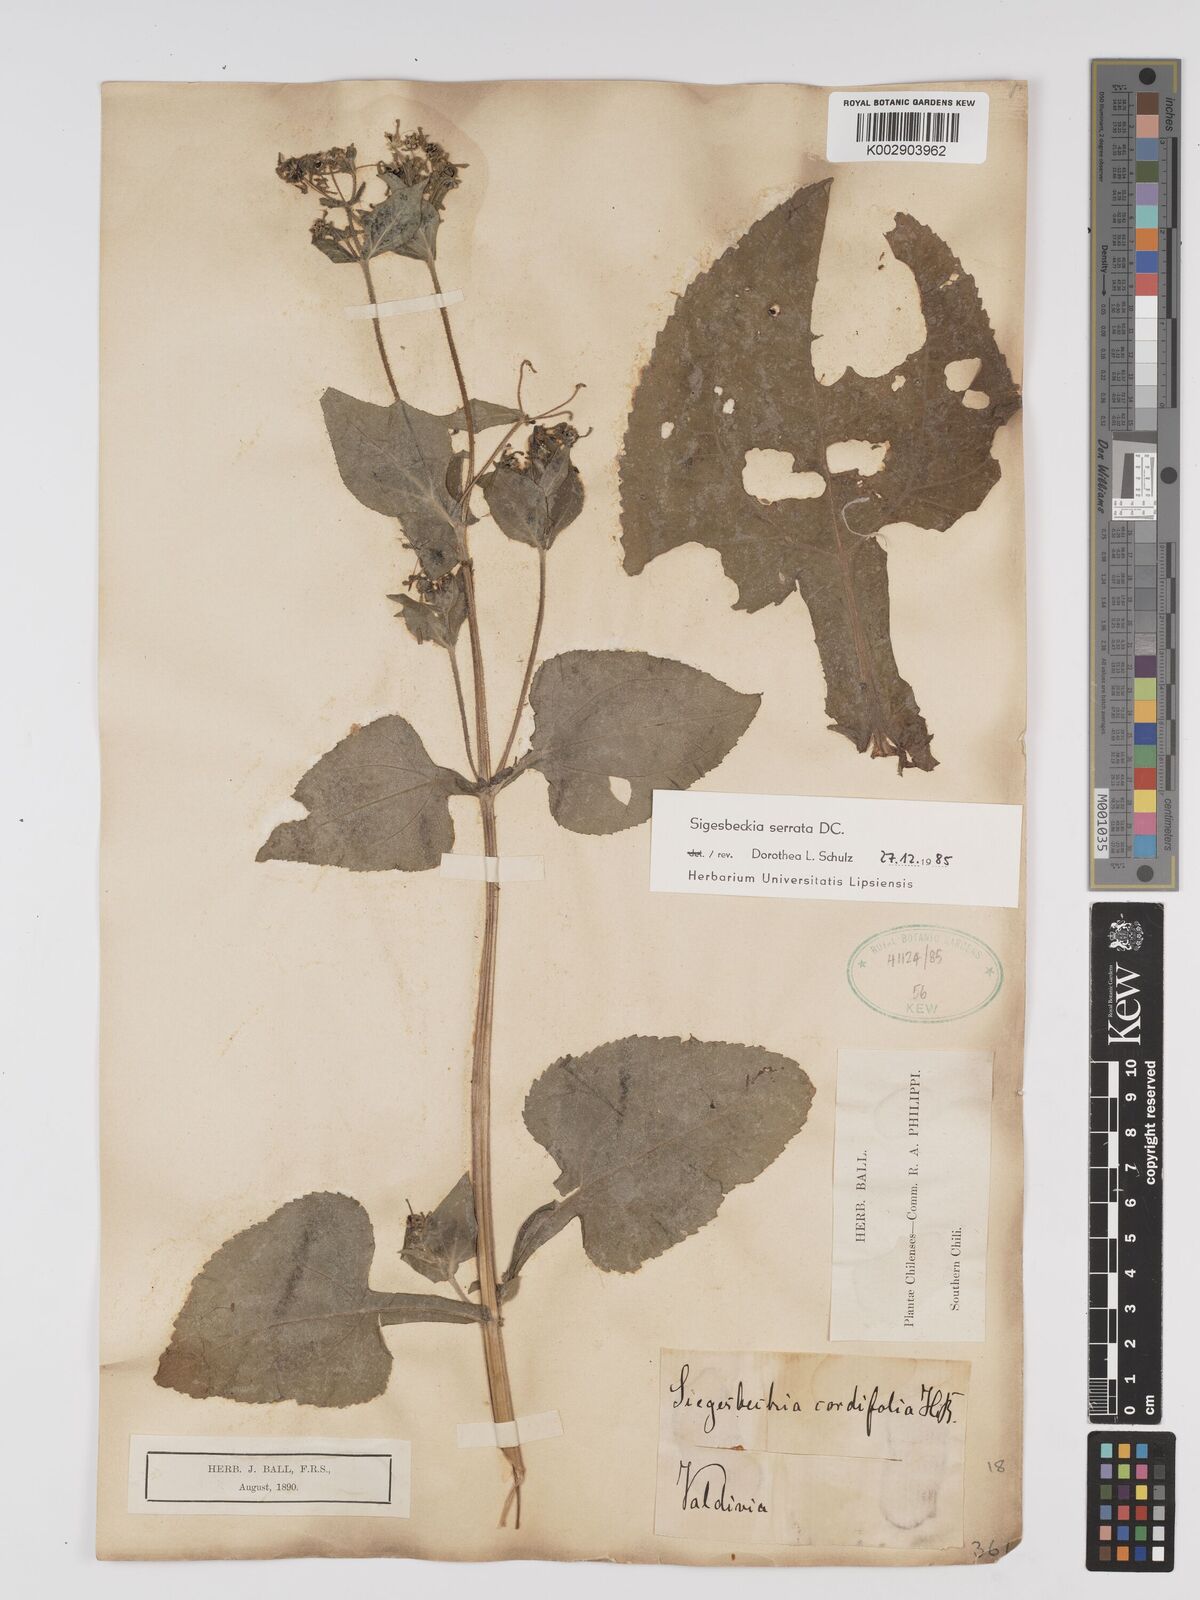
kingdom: Plantae
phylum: Tracheophyta
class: Magnoliopsida
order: Asterales
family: Asteraceae
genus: Sigesbeckia
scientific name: Sigesbeckia orientalis
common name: Eastern st paul's-wort
